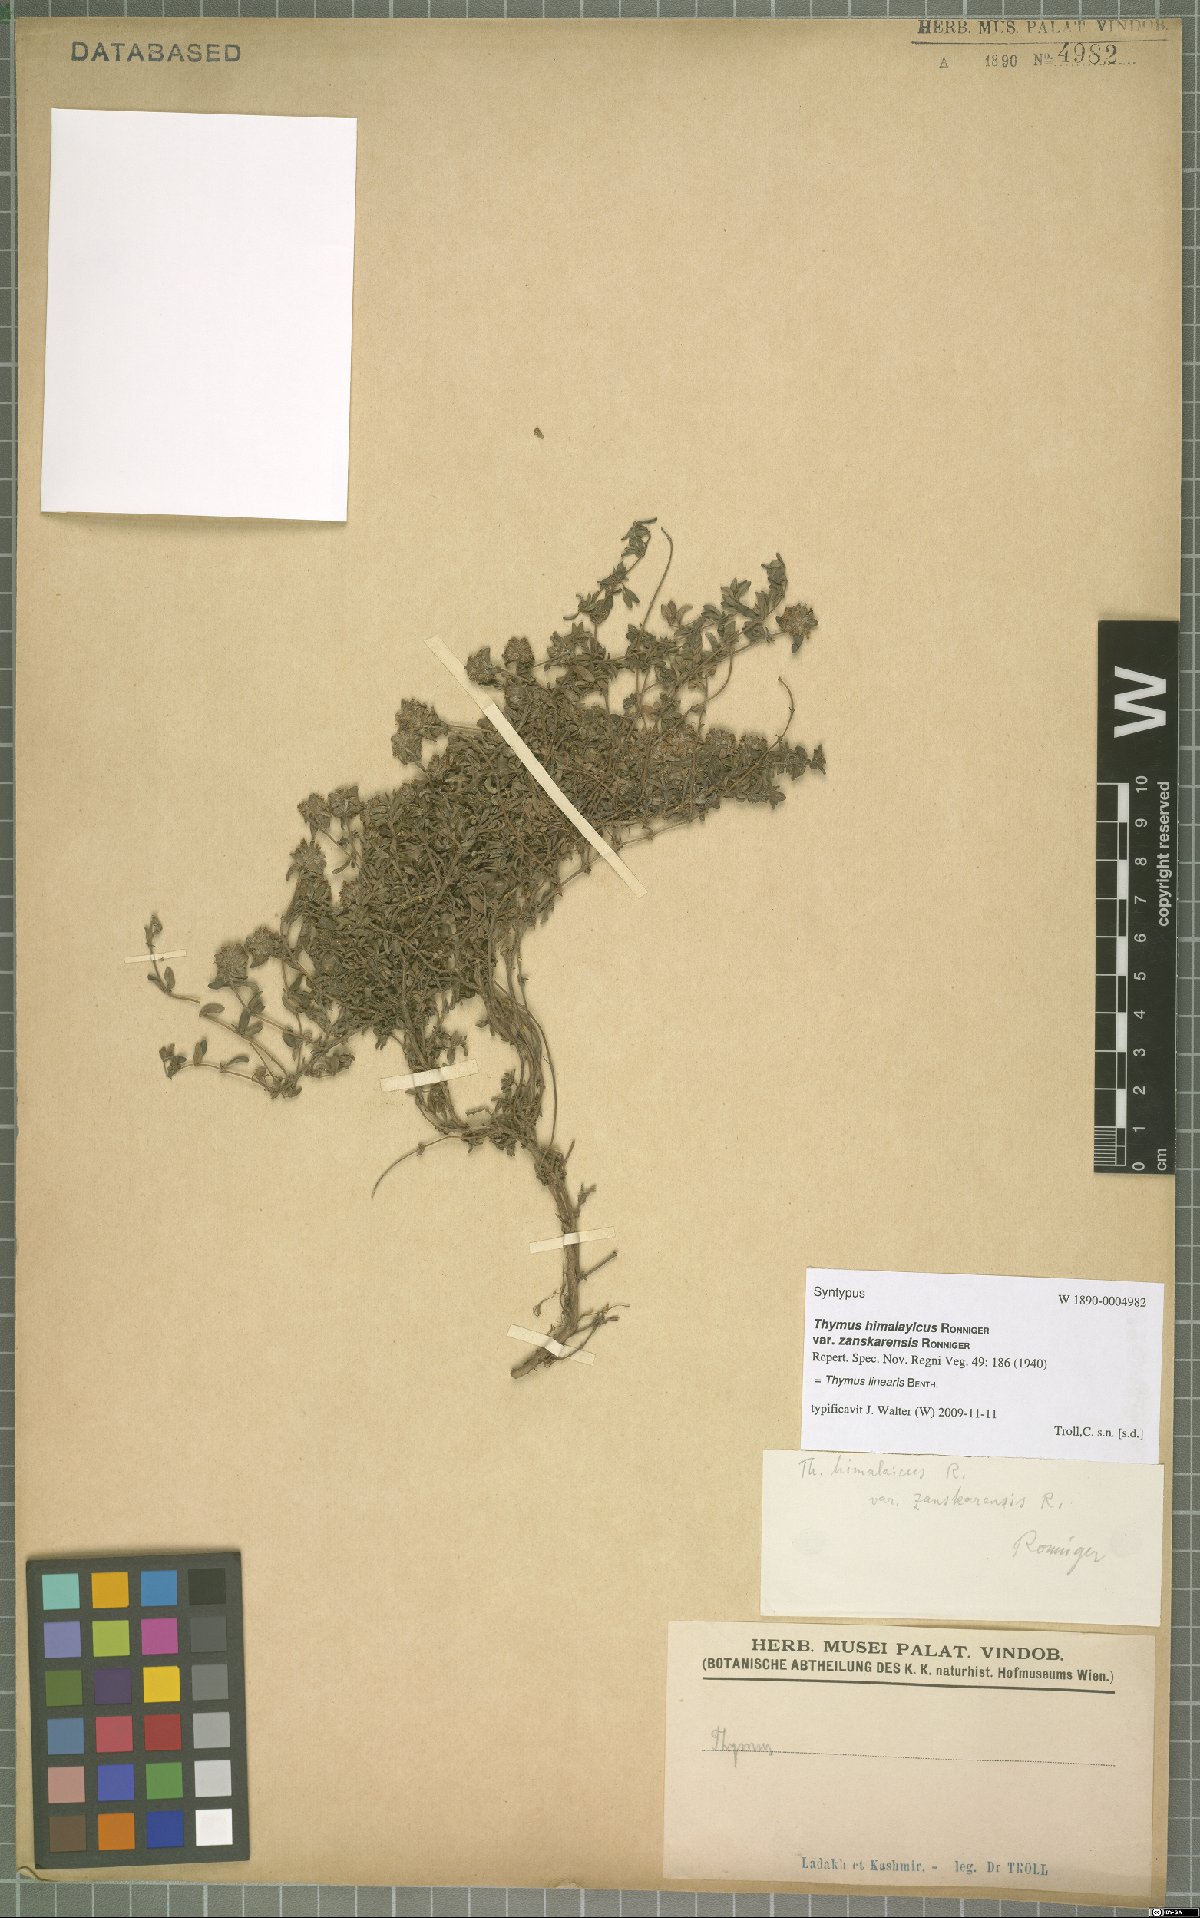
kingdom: Plantae
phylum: Tracheophyta
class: Magnoliopsida
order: Lamiales
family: Lamiaceae
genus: Thymus
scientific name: Thymus linearis
